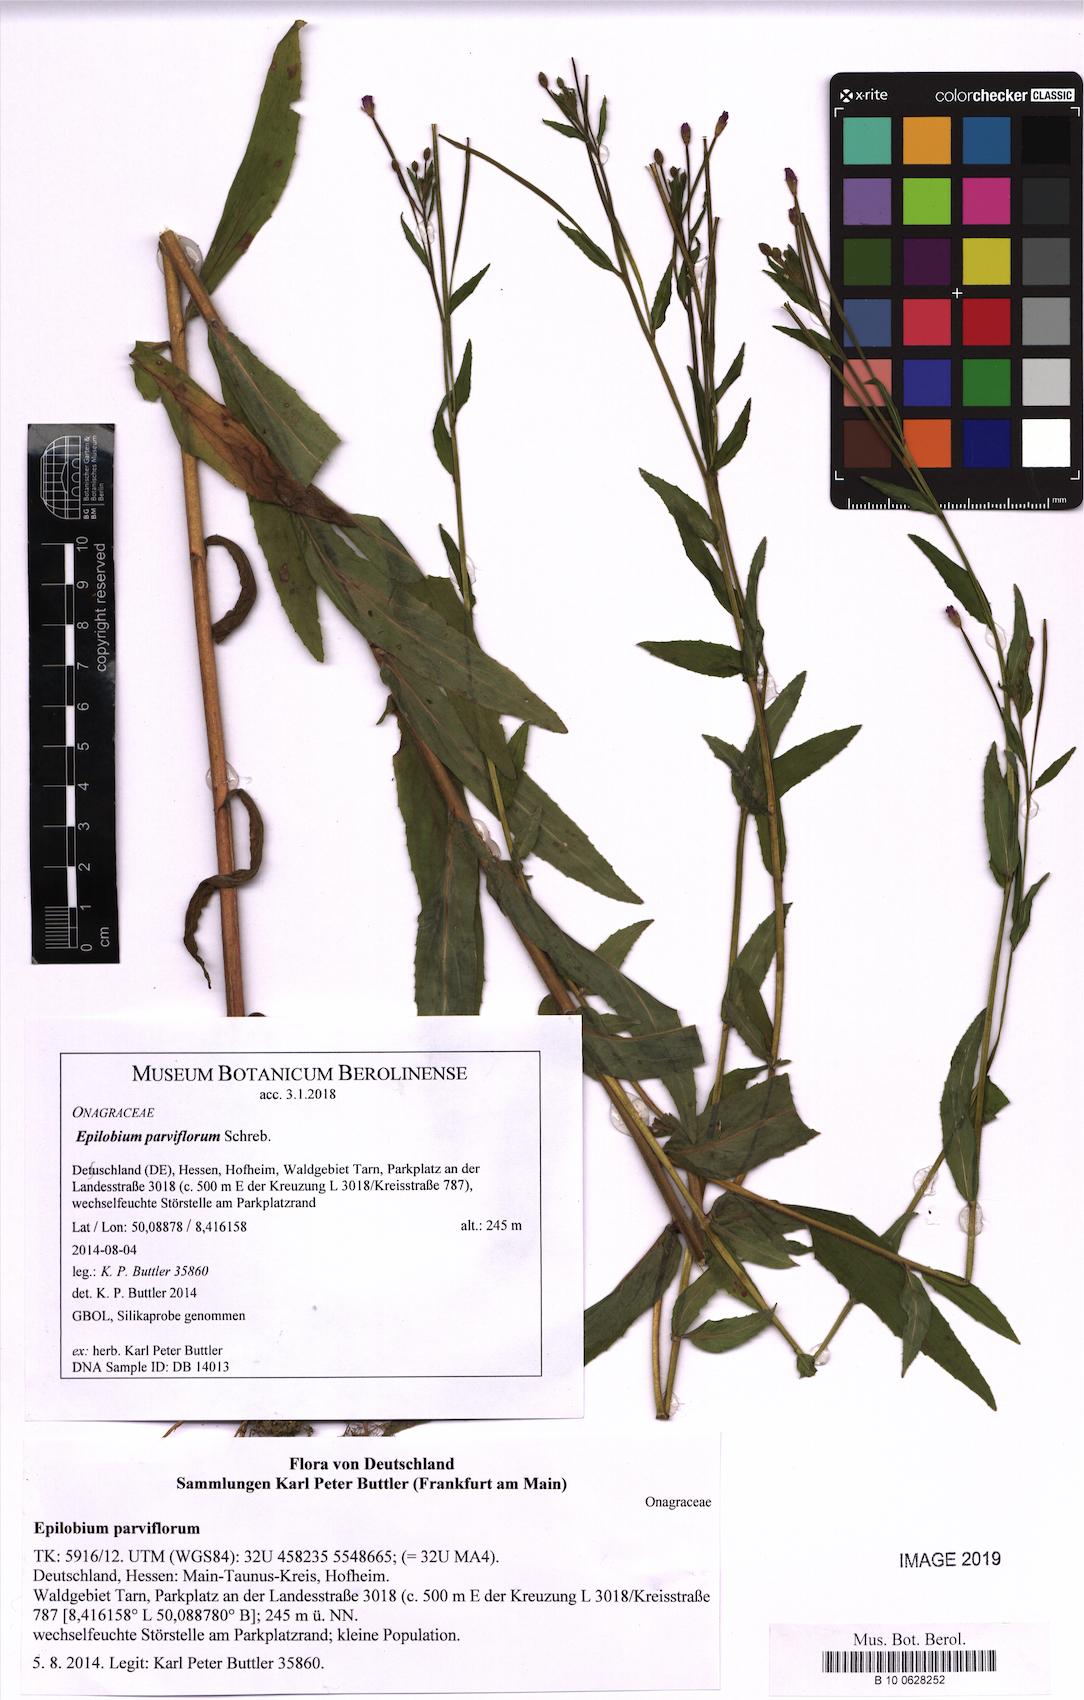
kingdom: Plantae
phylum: Tracheophyta
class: Magnoliopsida
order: Myrtales
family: Onagraceae
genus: Epilobium
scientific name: Epilobium parviflorum
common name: Hoary willowherb
